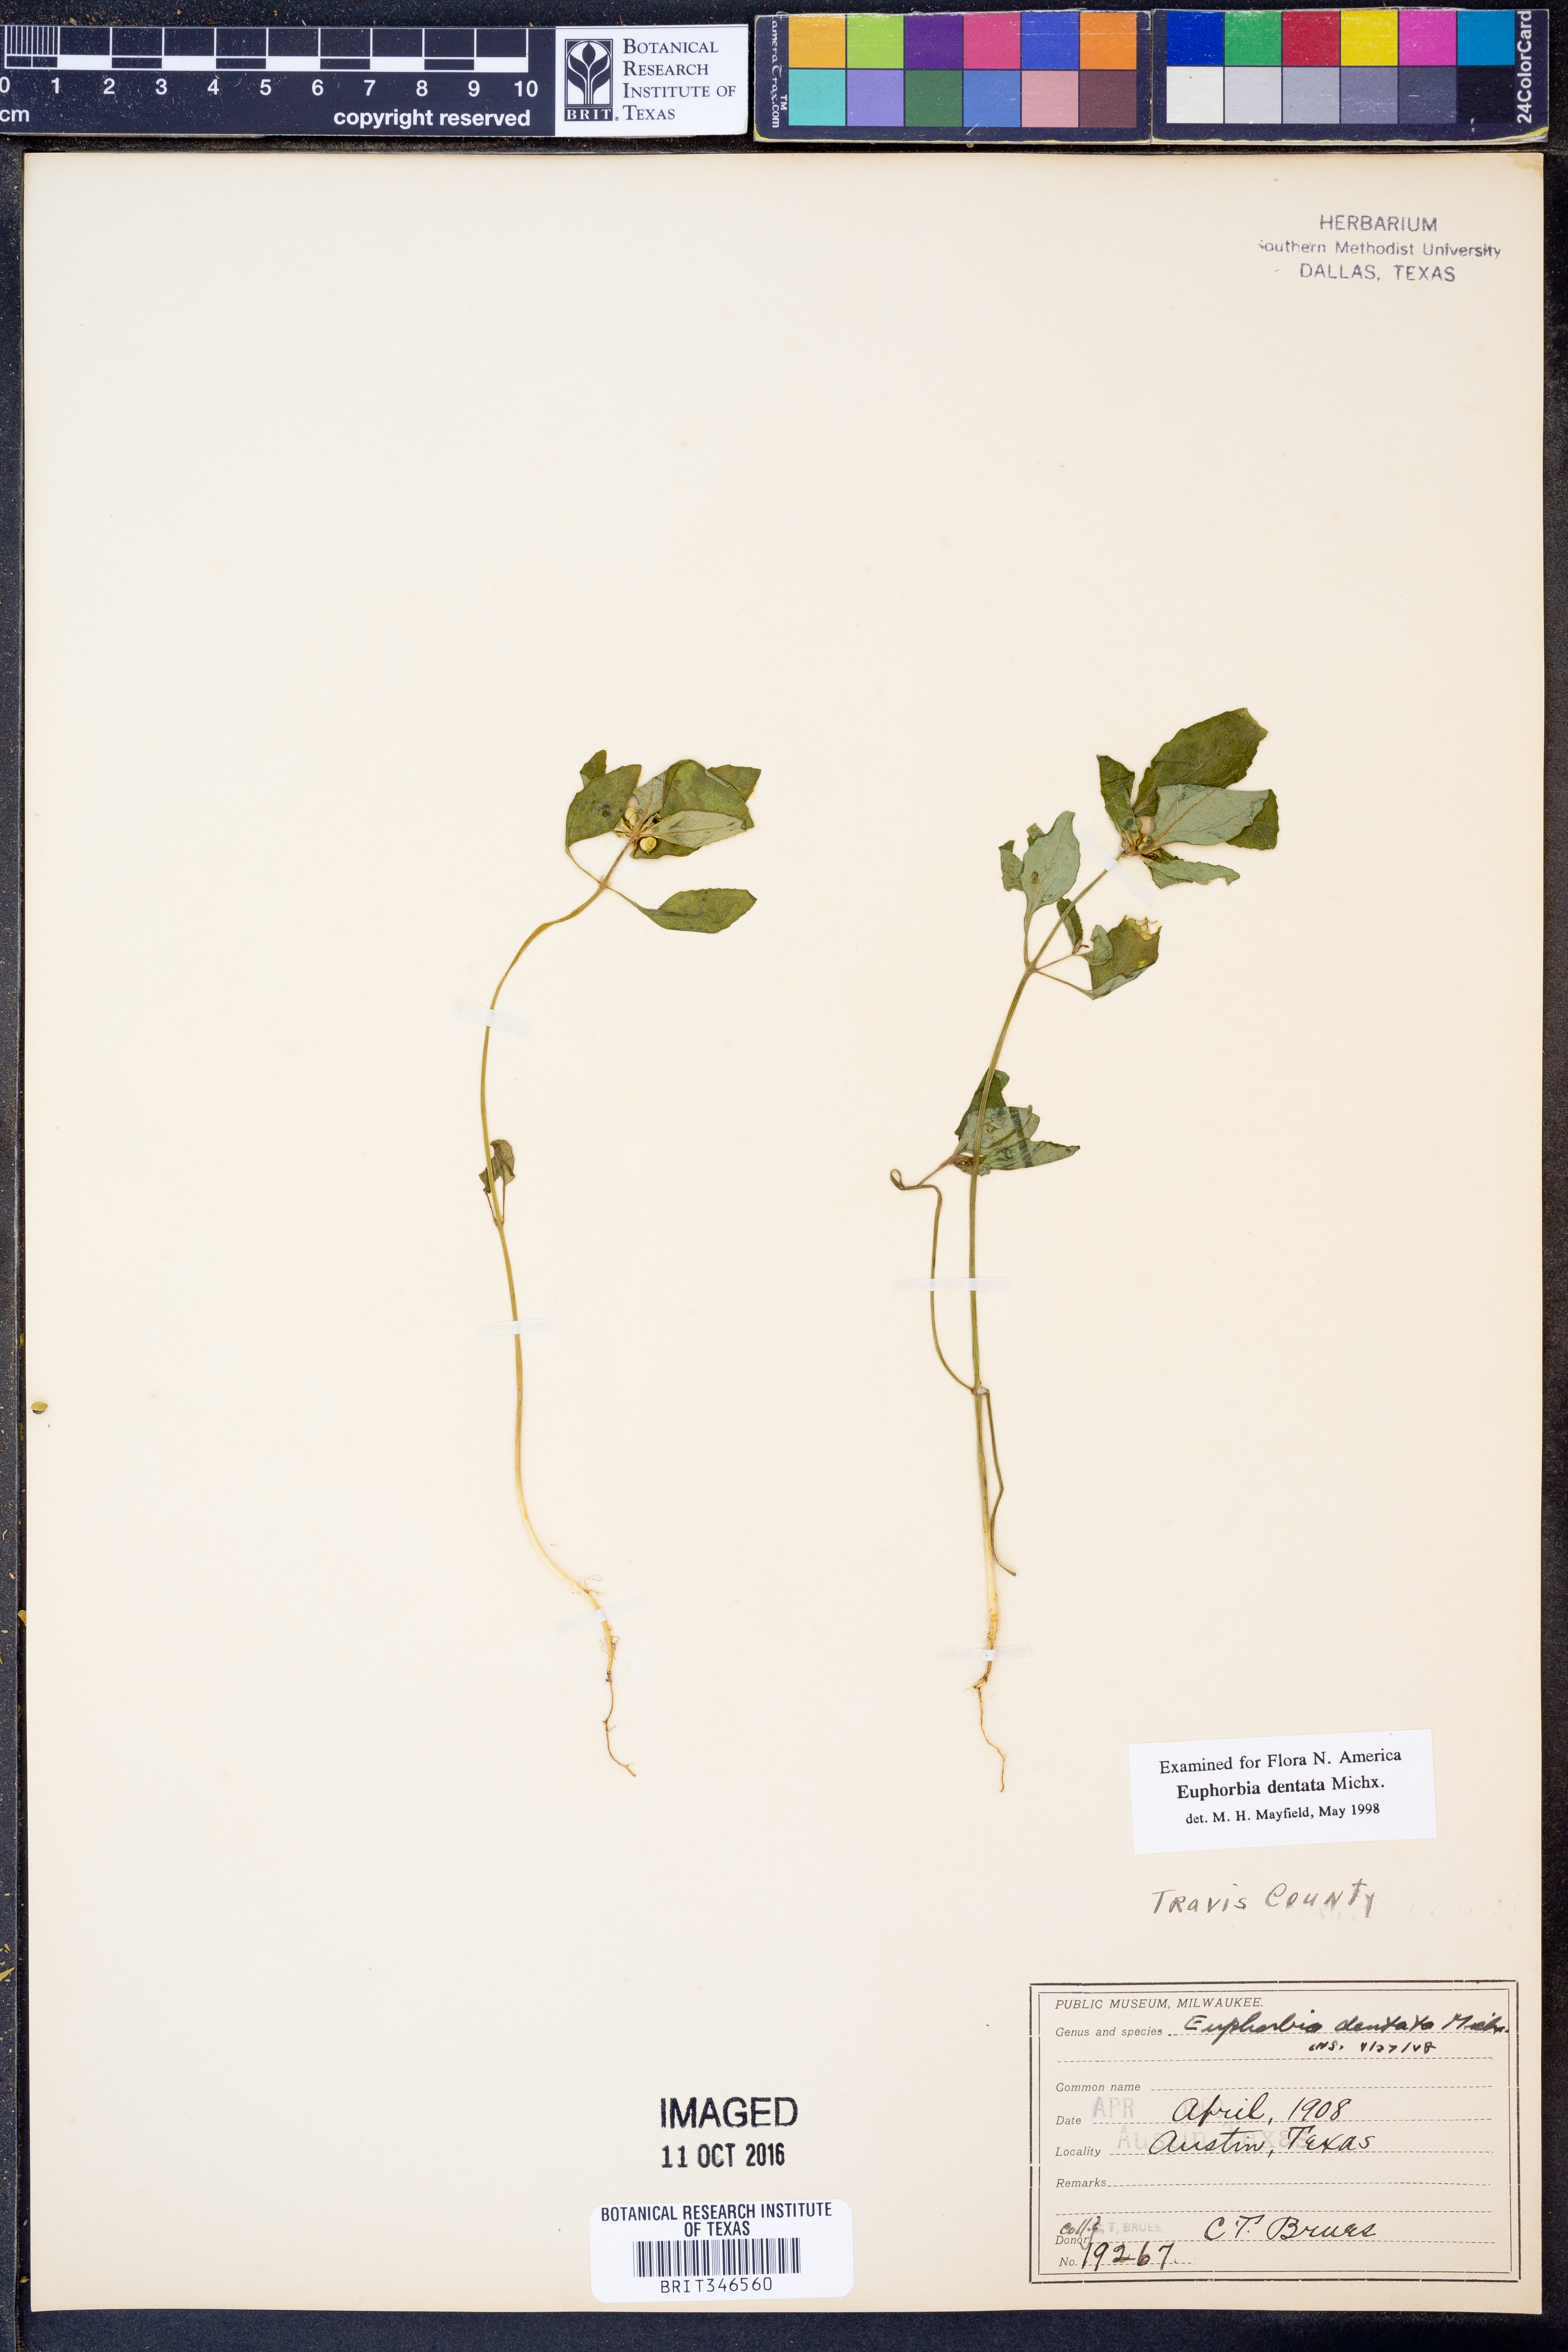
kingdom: Plantae
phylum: Tracheophyta
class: Magnoliopsida
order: Malpighiales
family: Euphorbiaceae
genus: Euphorbia
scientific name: Euphorbia dentata
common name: Dentate spurge
